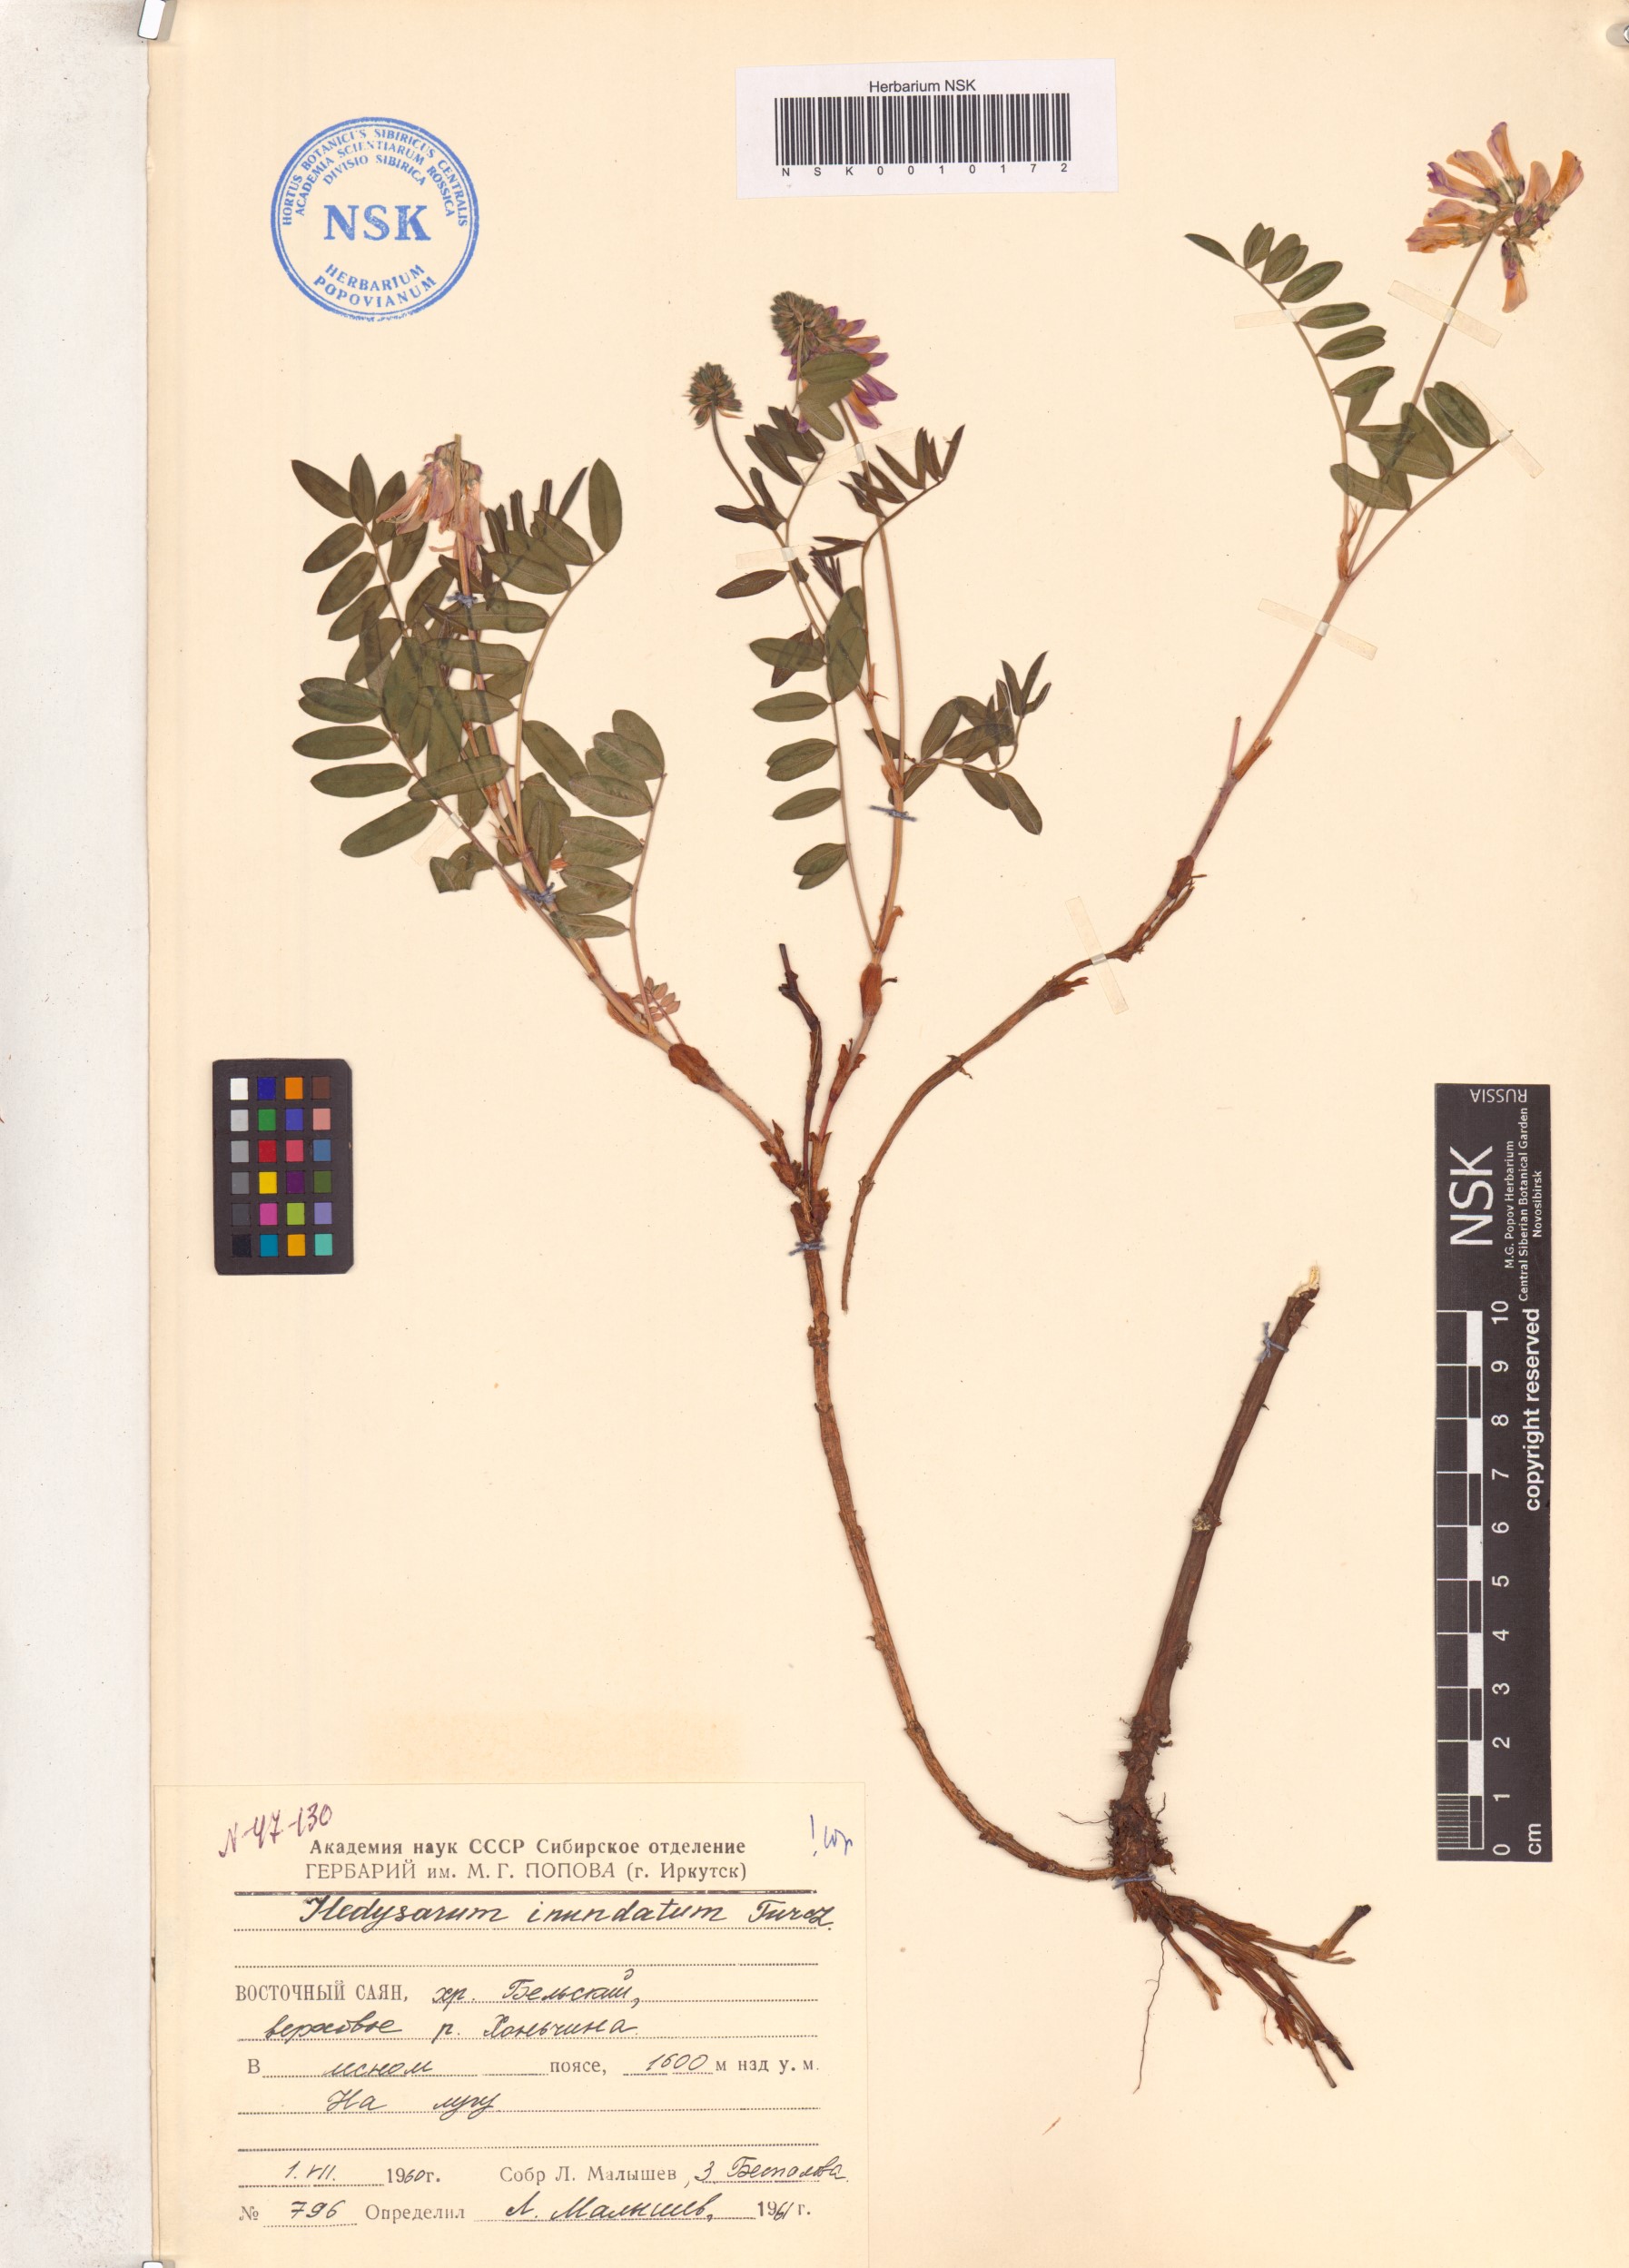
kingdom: Plantae
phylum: Tracheophyta
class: Magnoliopsida
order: Fabales
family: Fabaceae
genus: Hedysarum
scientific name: Hedysarum inundatum
